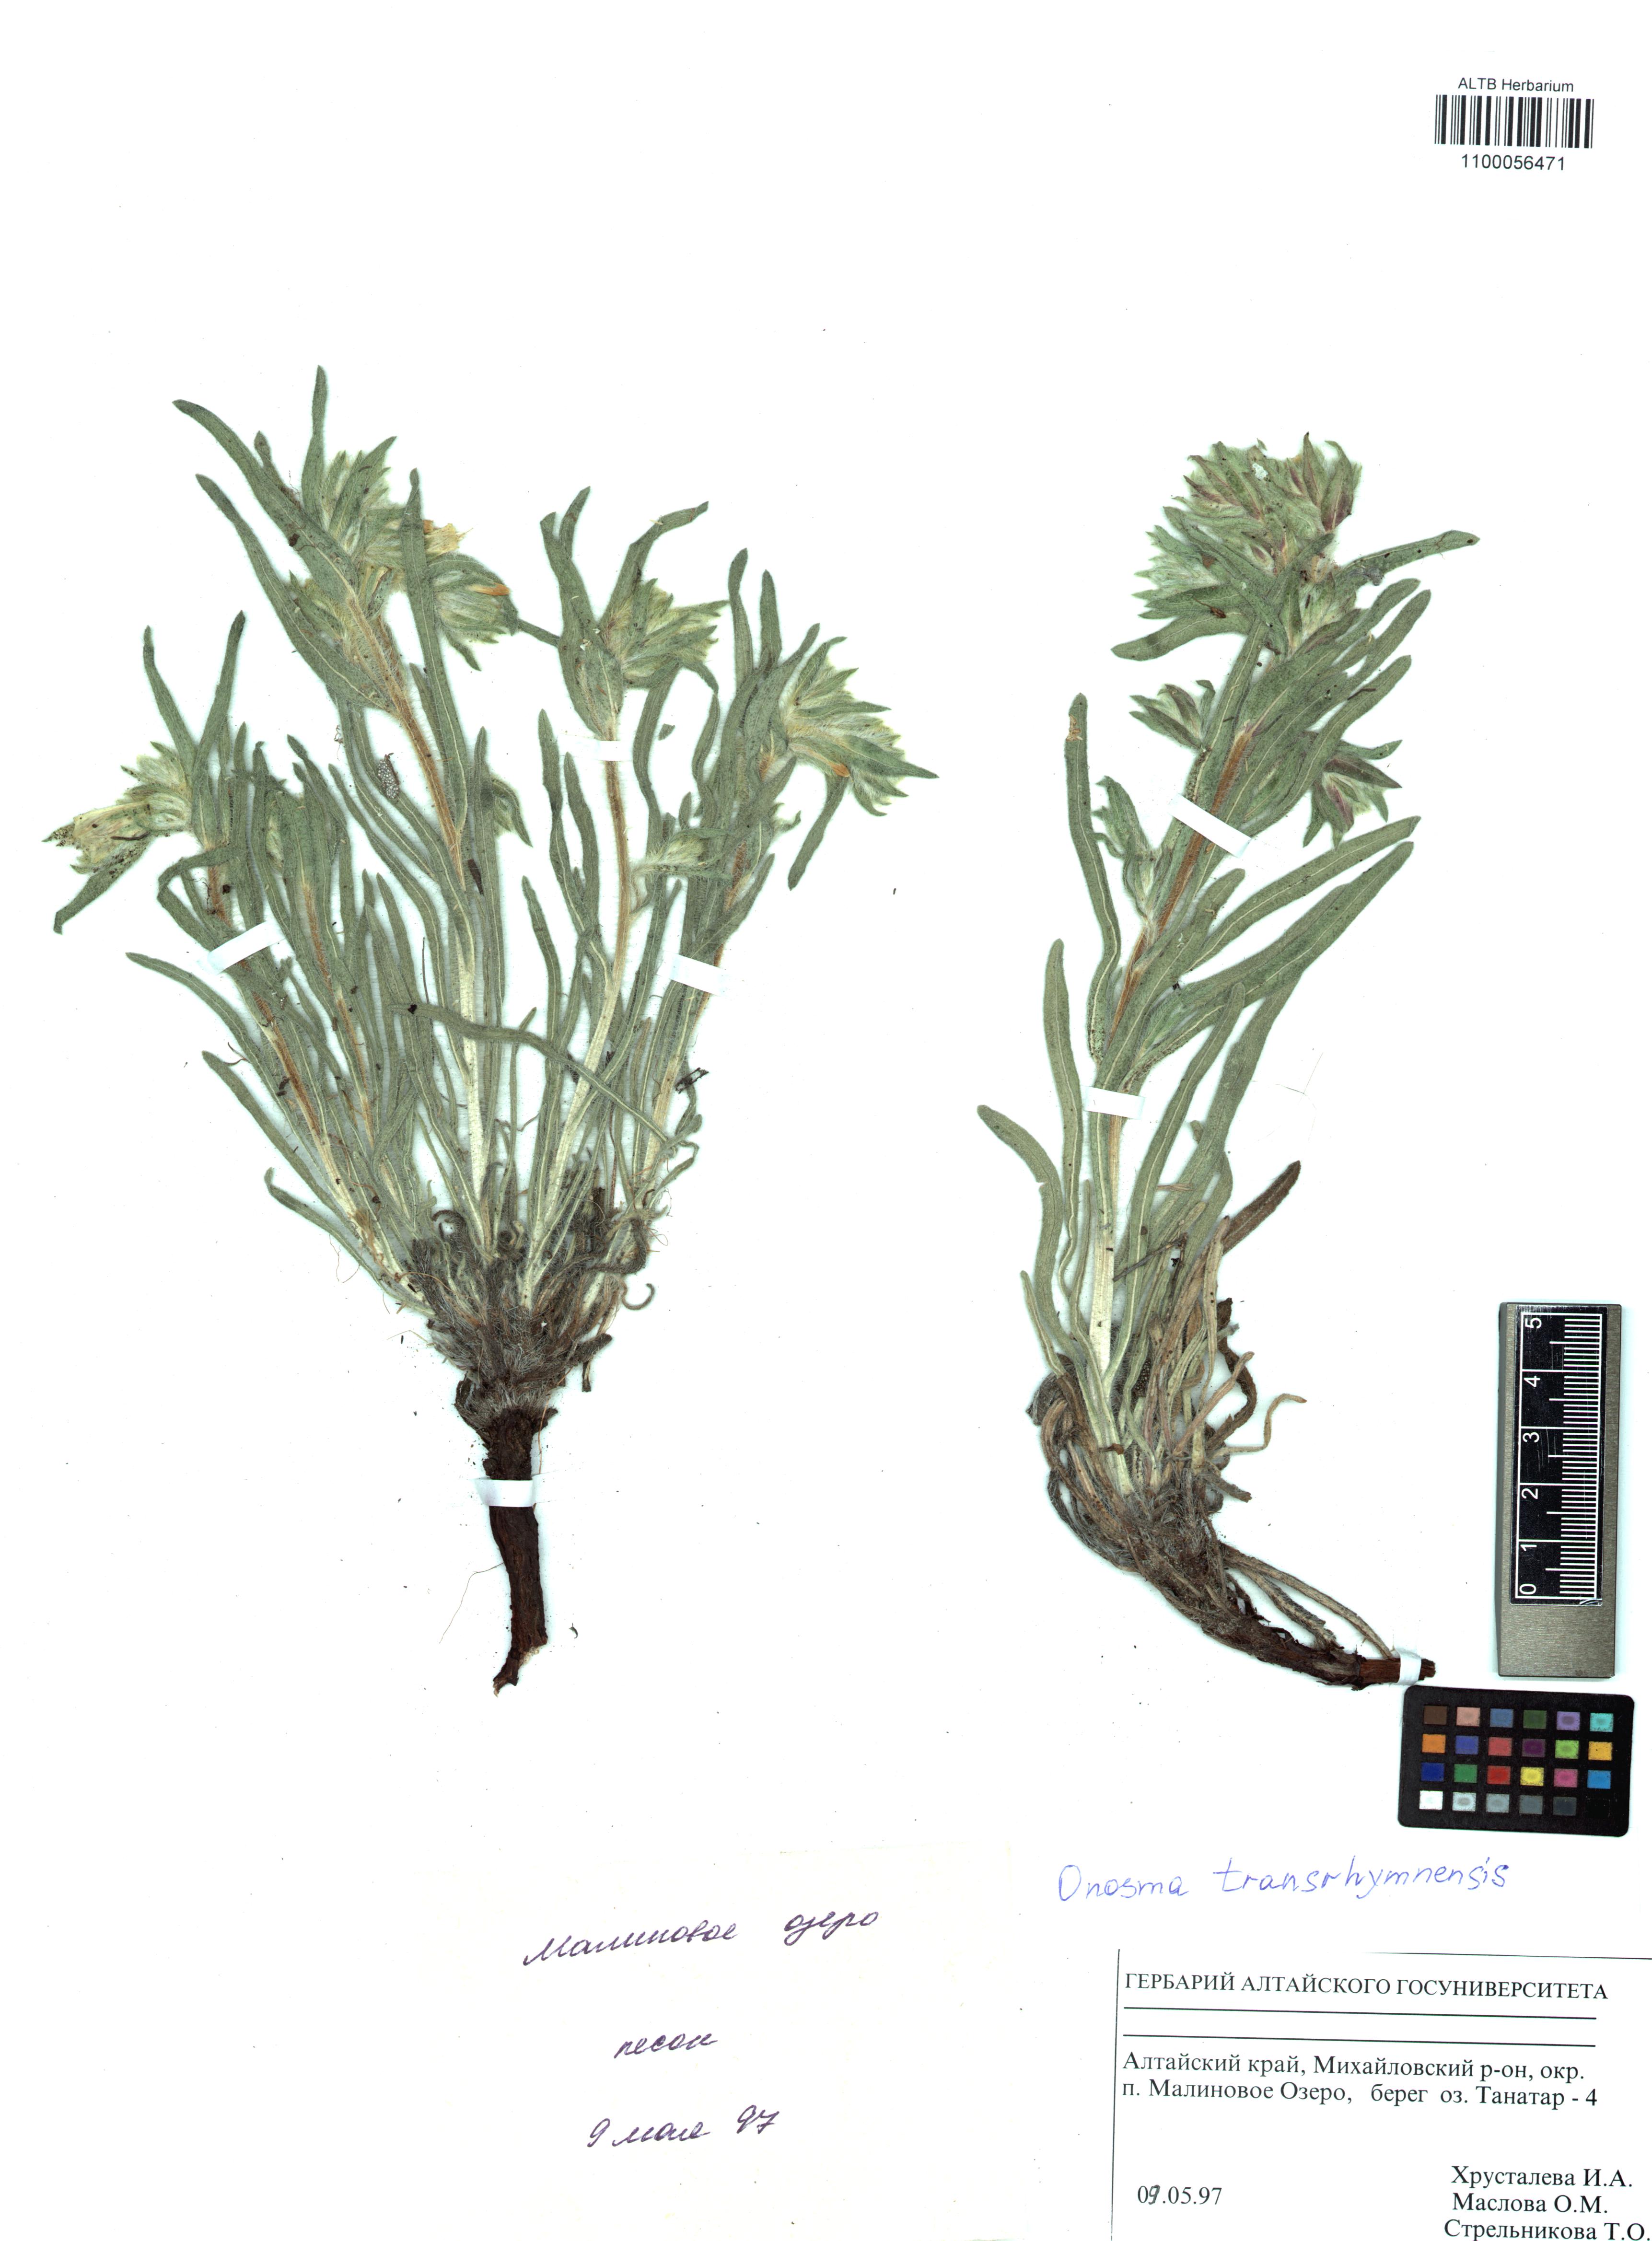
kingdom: Plantae
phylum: Tracheophyta
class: Magnoliopsida
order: Boraginales
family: Boraginaceae
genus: Onosma
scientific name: Onosma transrhymnensis
